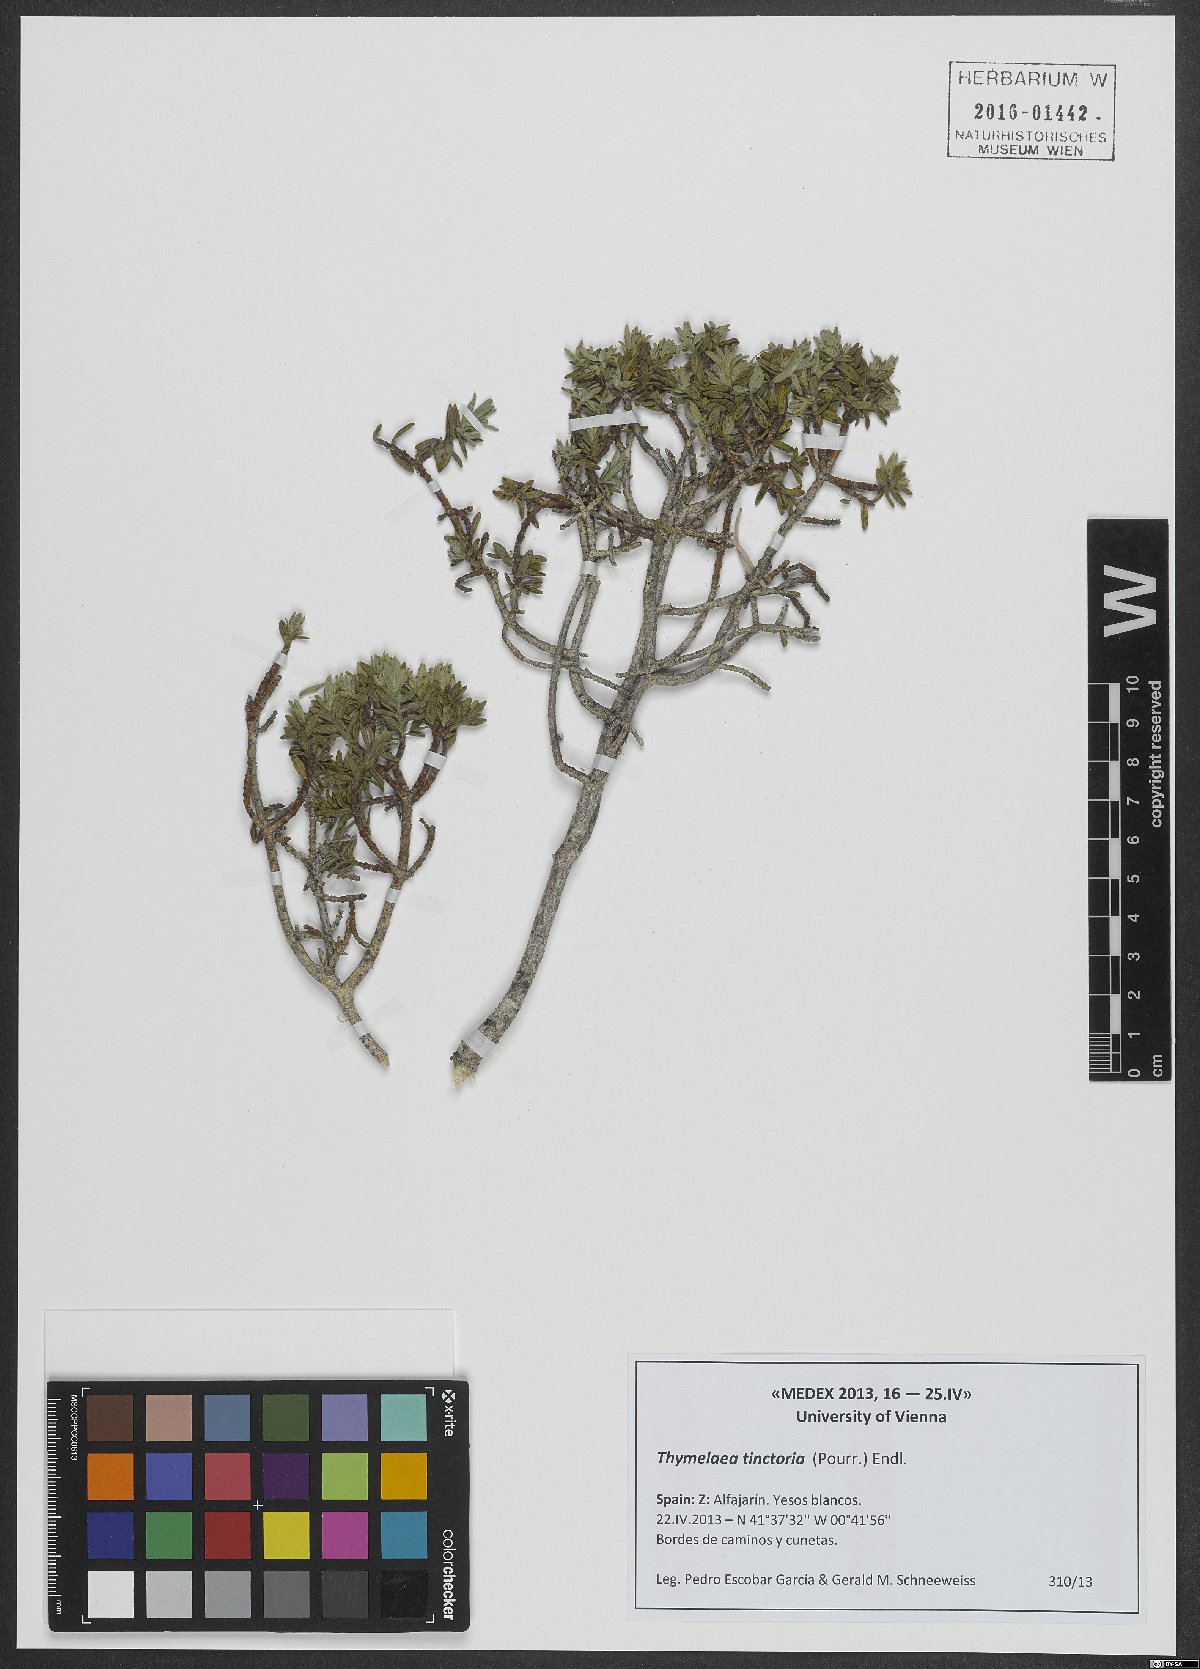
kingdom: Plantae
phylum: Tracheophyta
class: Magnoliopsida
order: Malvales
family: Thymelaeaceae
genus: Thymelaea
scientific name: Thymelaea tinctoria
